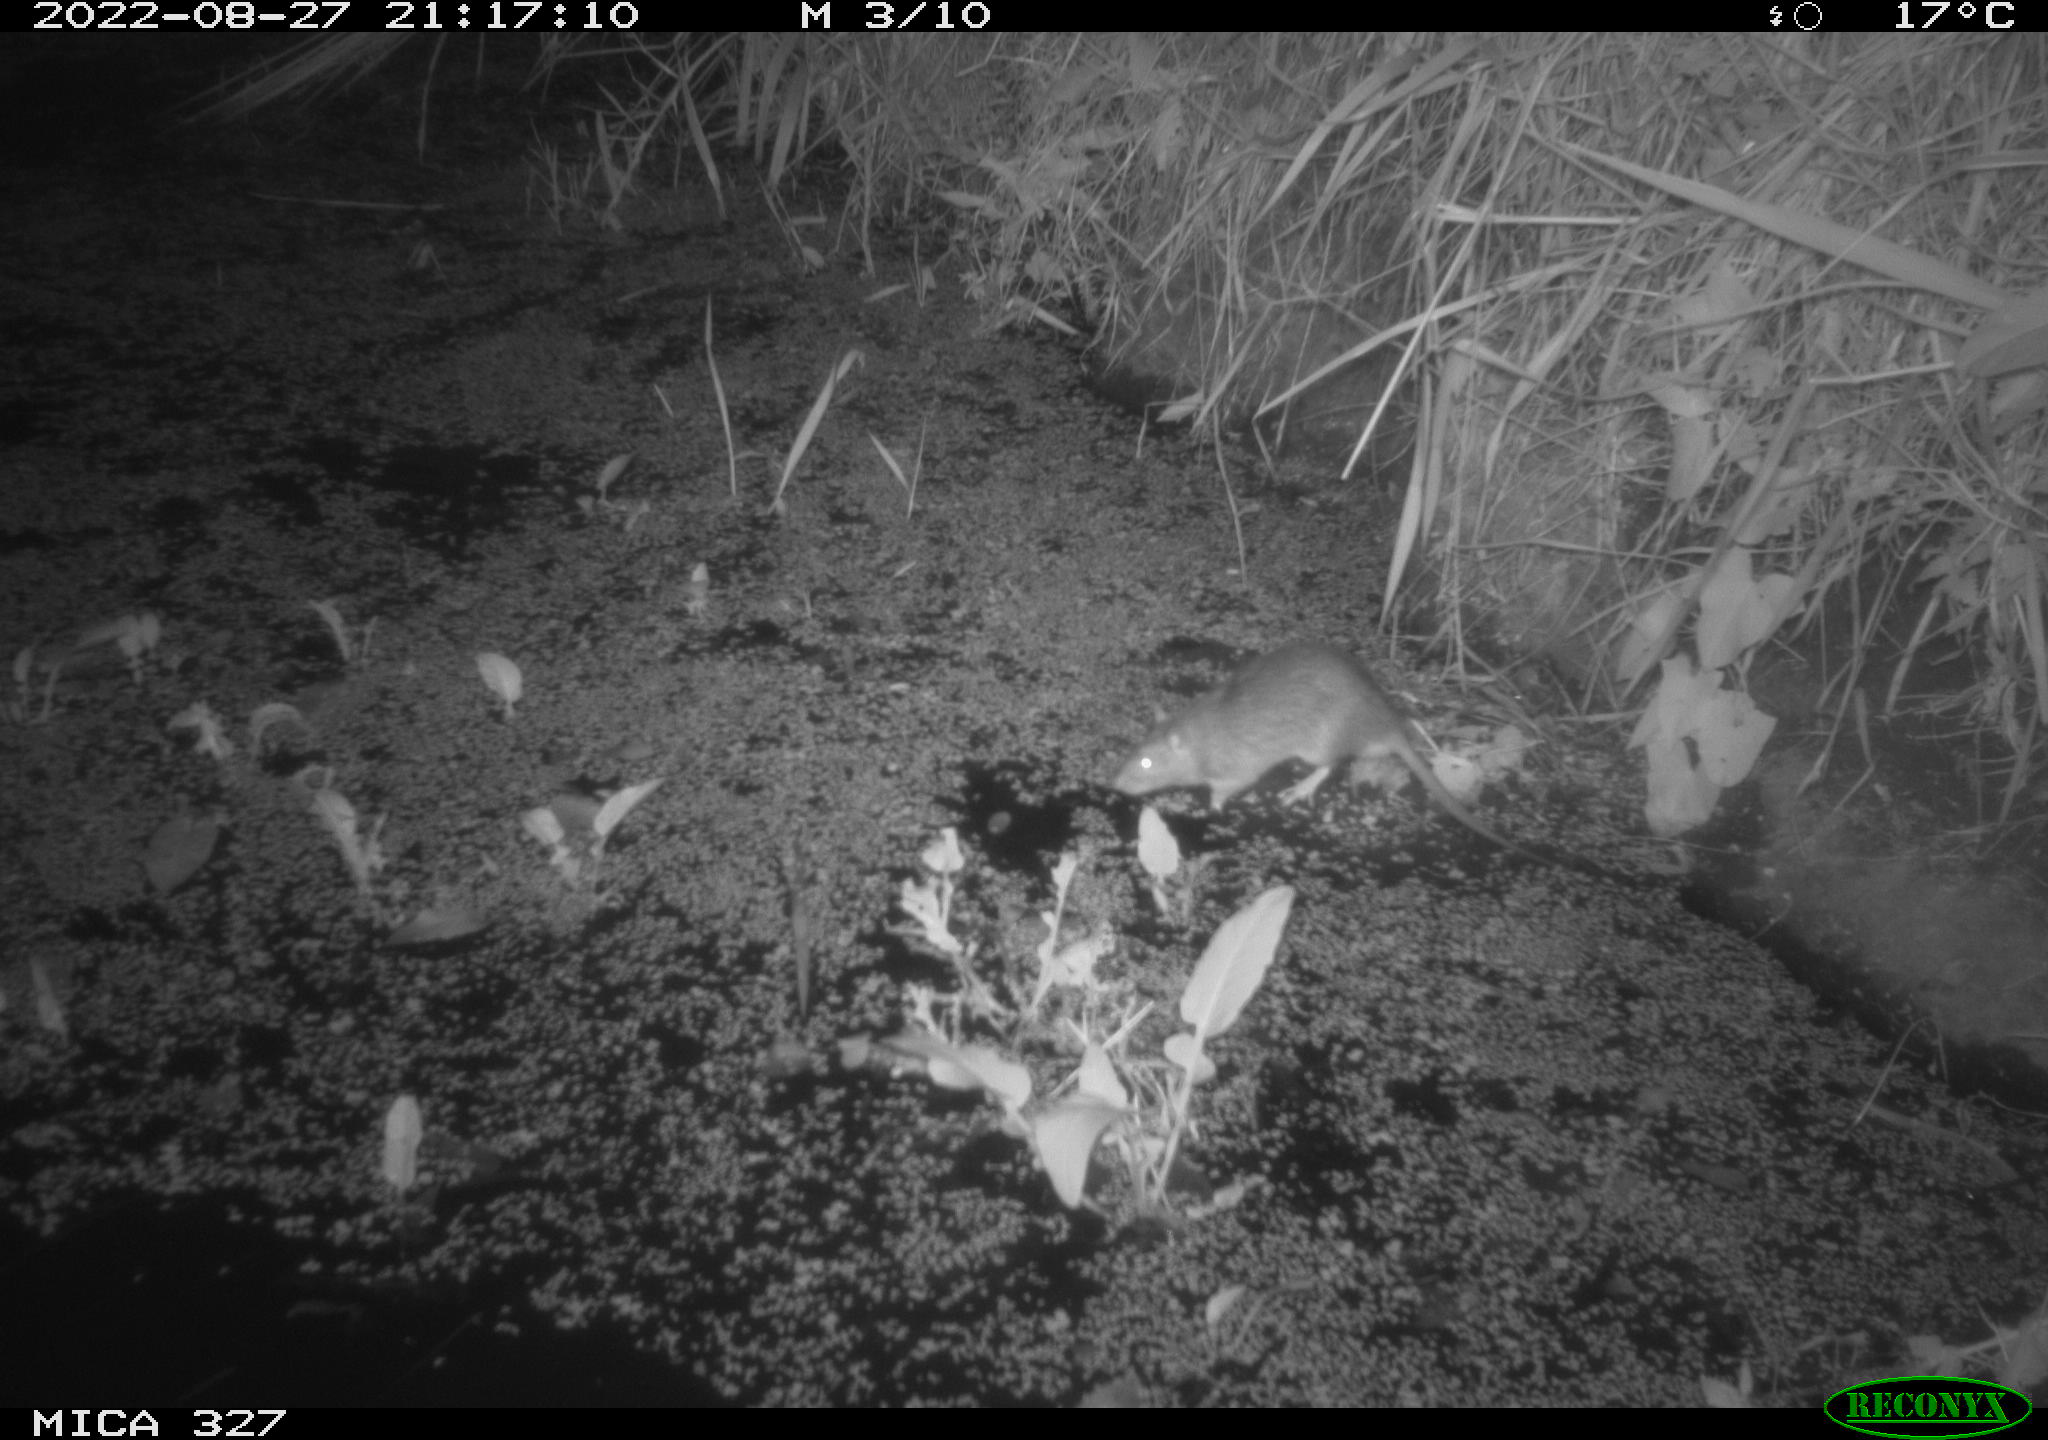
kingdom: Animalia
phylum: Chordata
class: Mammalia
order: Rodentia
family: Muridae
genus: Rattus
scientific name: Rattus norvegicus
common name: Brown rat
